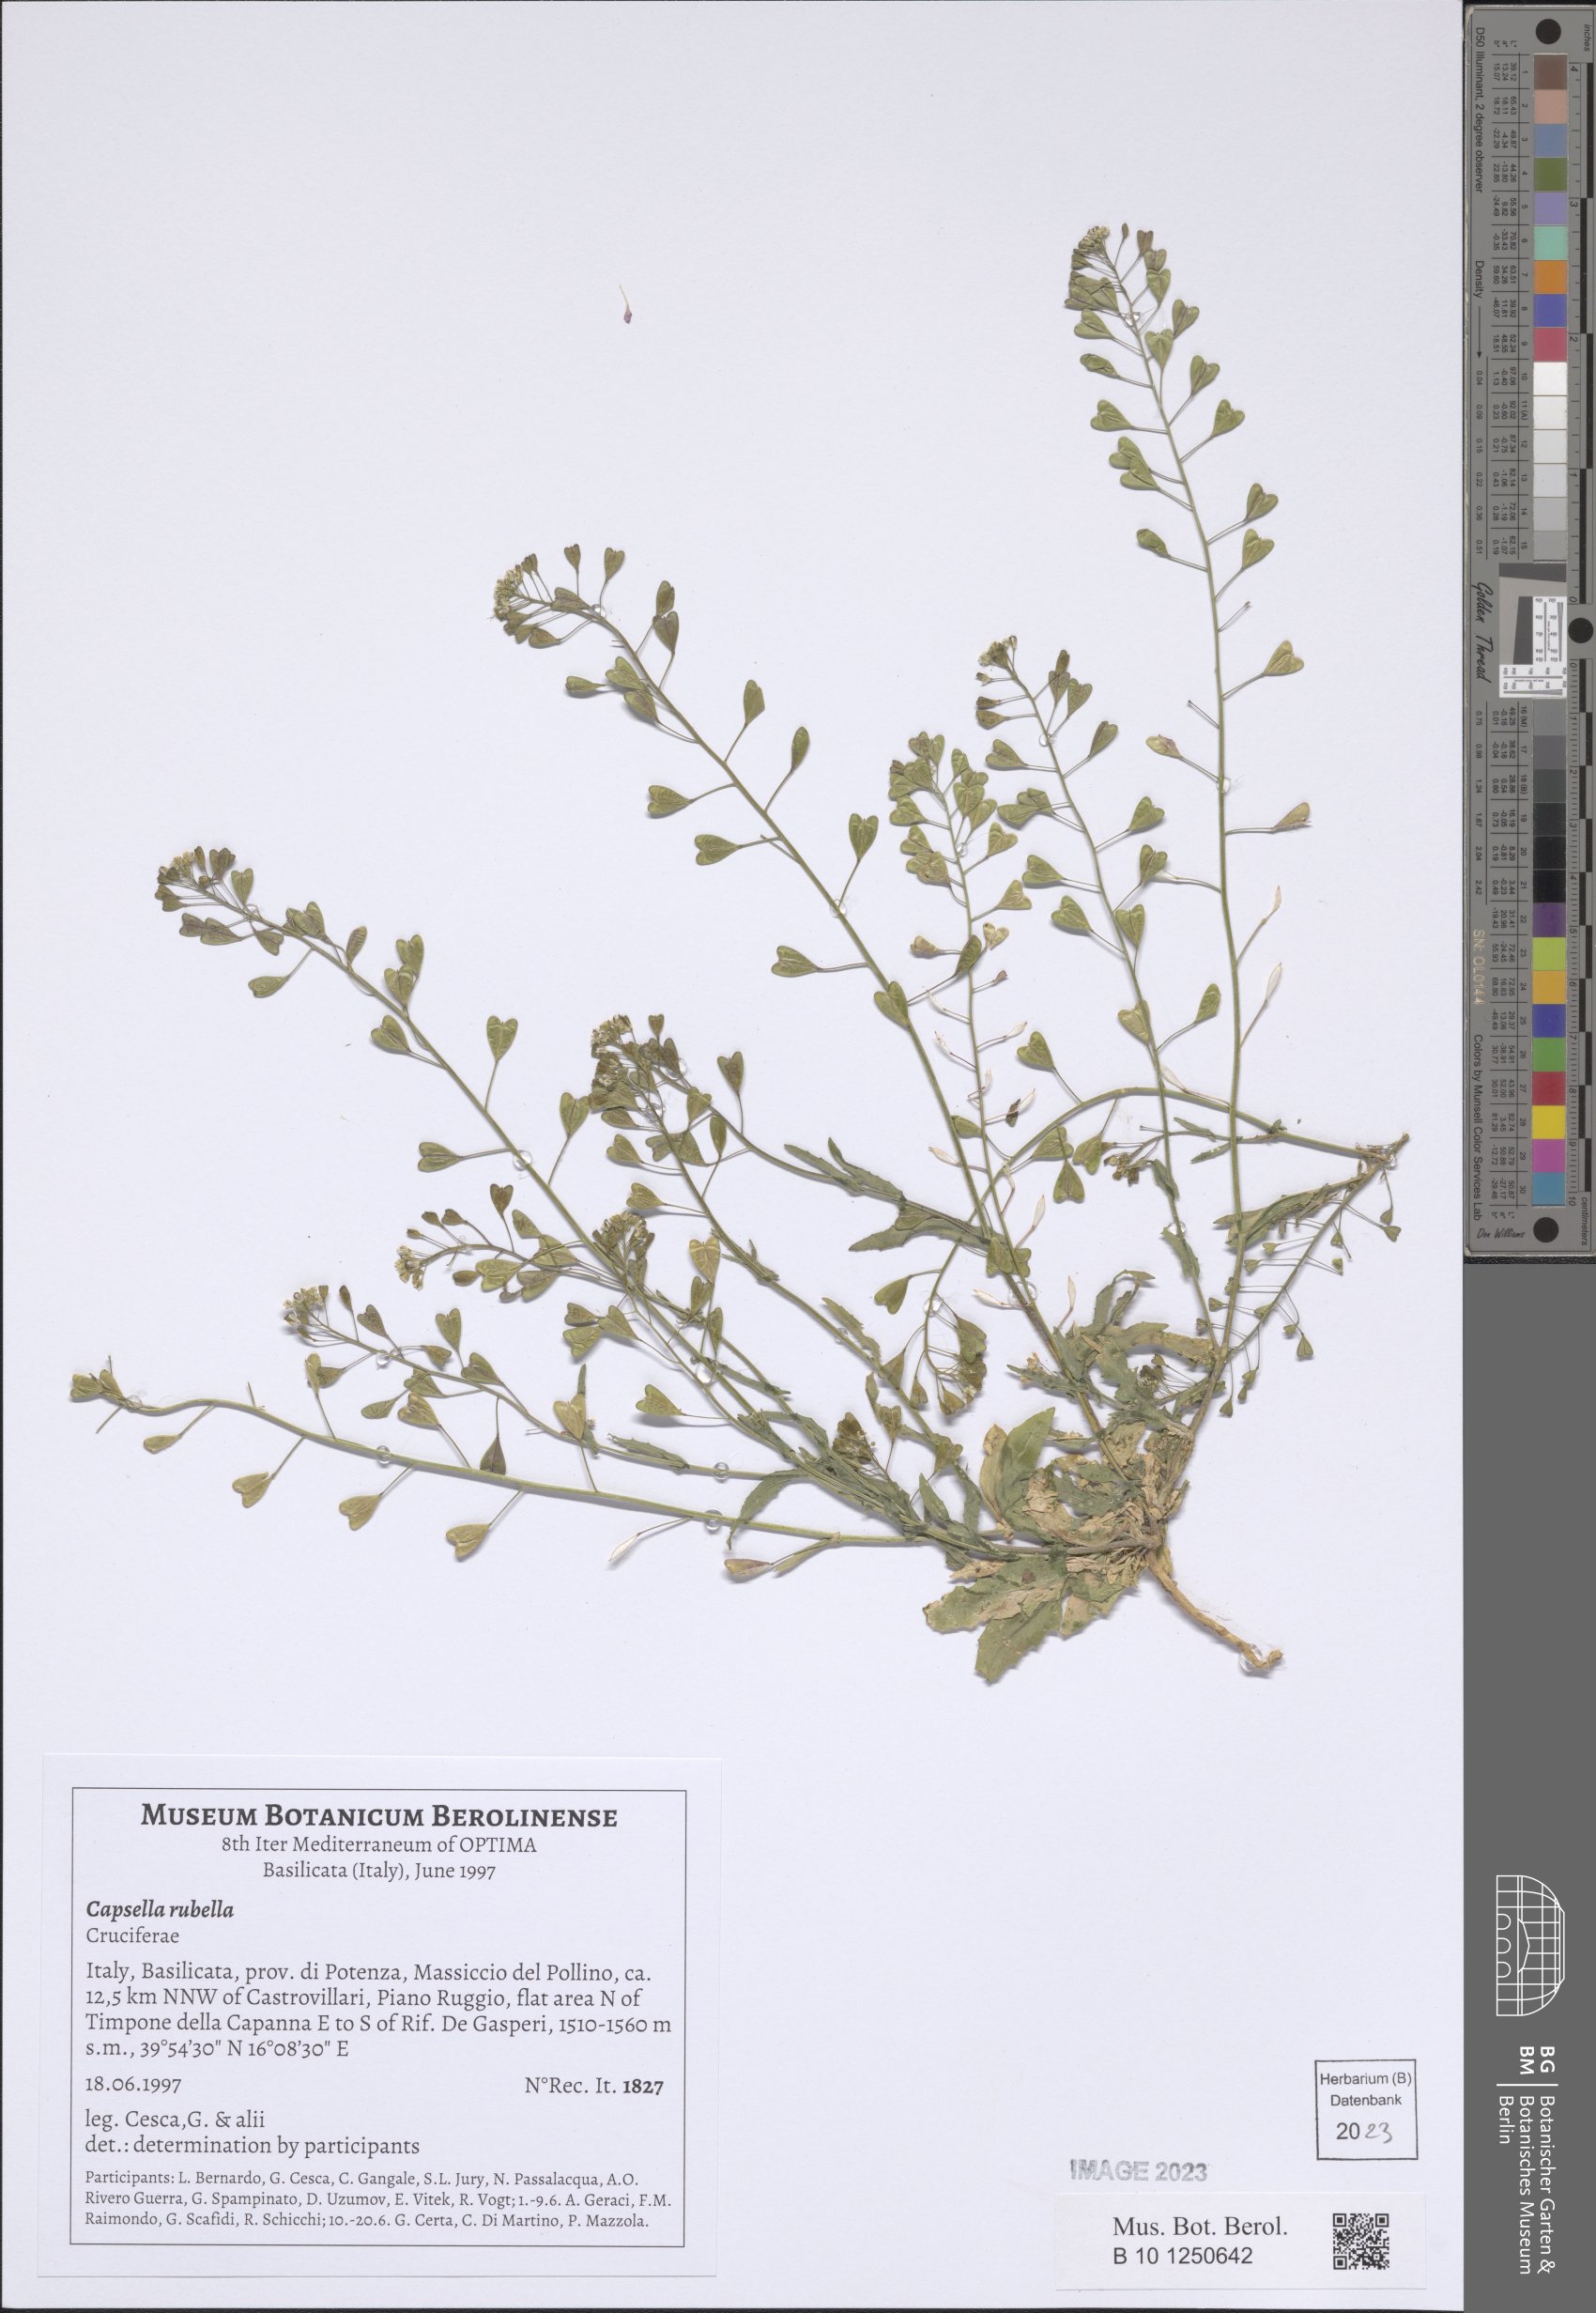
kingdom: Plantae
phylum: Tracheophyta
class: Magnoliopsida
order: Brassicales
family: Brassicaceae
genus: Capsella
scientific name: Capsella rubella
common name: Pink shepherd's-purse
